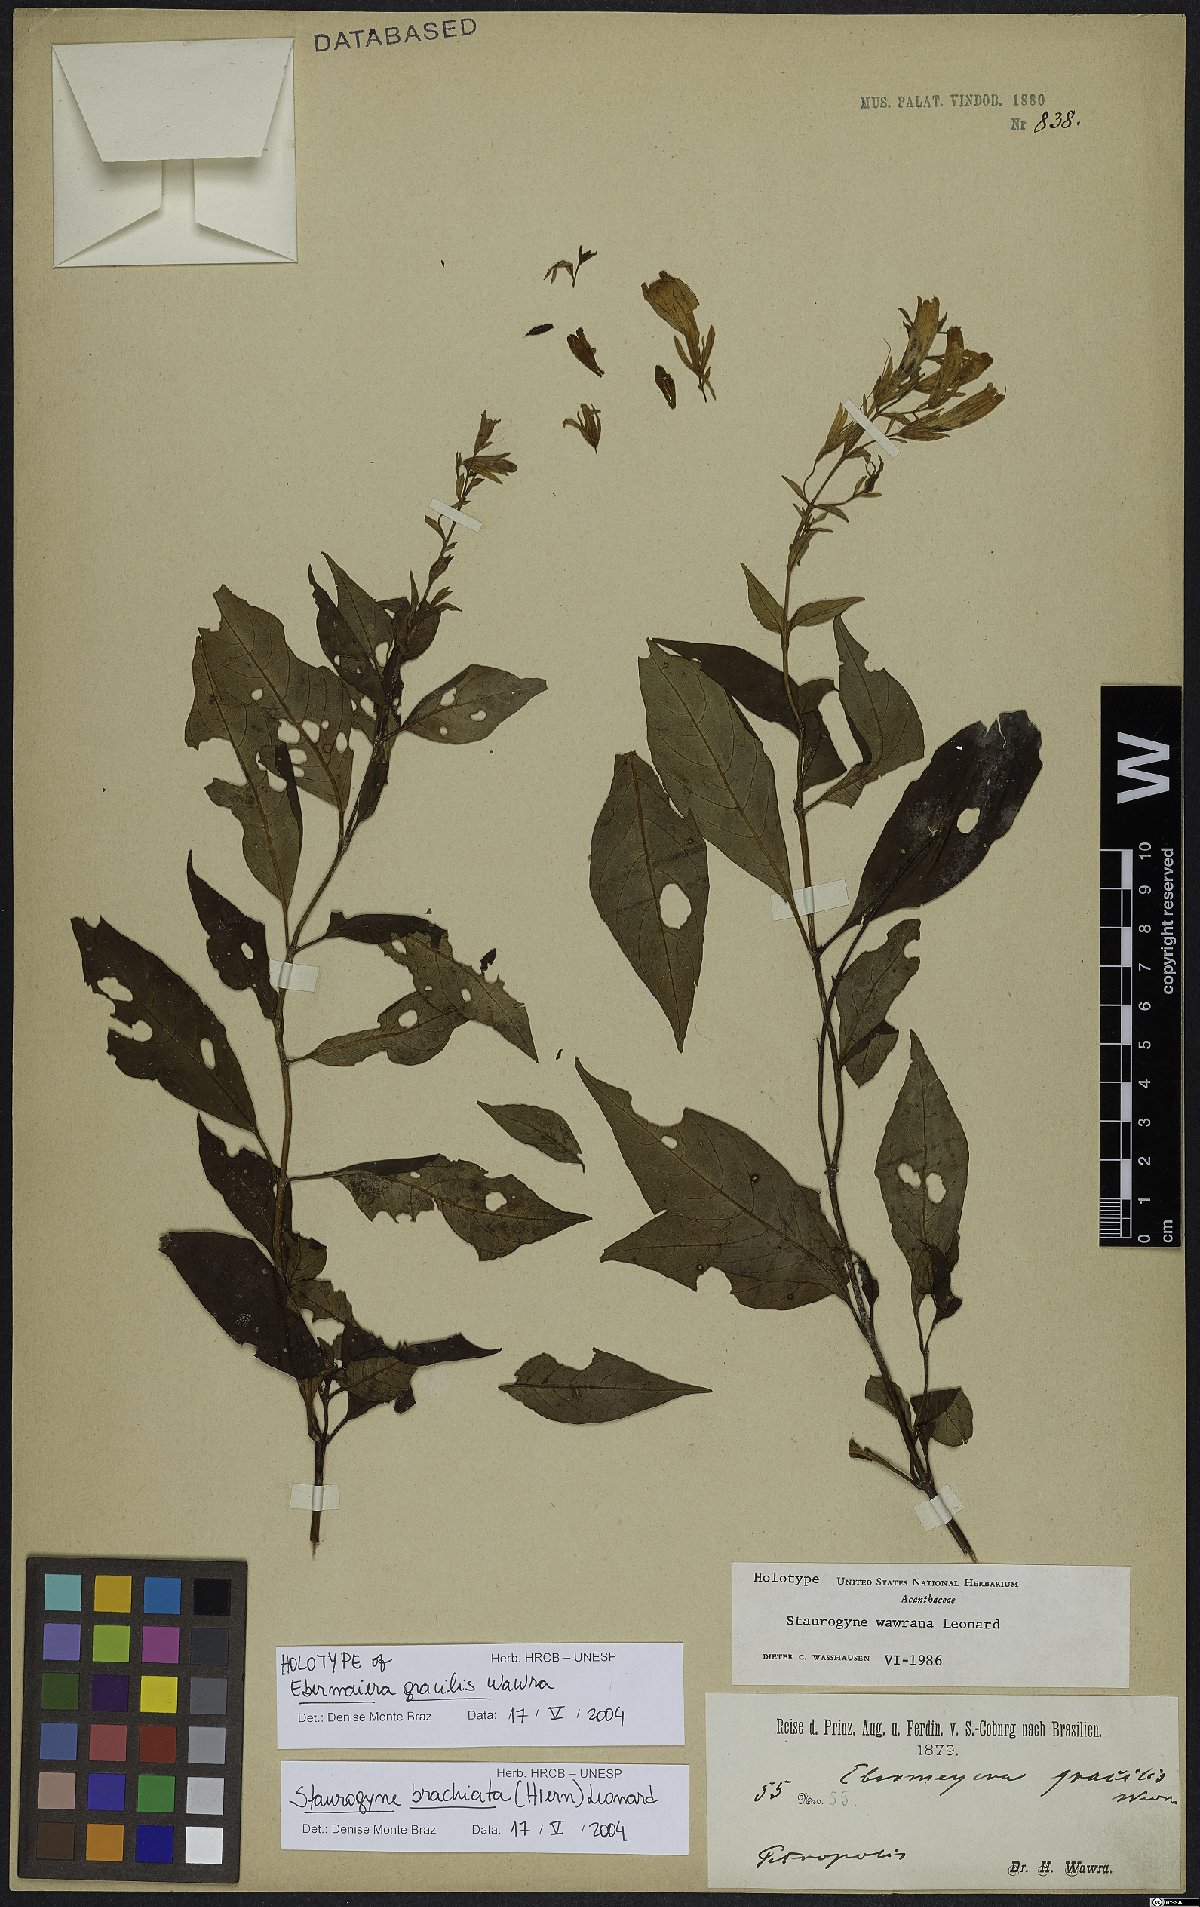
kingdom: Plantae
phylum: Tracheophyta
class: Magnoliopsida
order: Lamiales
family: Acanthaceae
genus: Staurogyne
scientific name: Staurogyne brachiata
